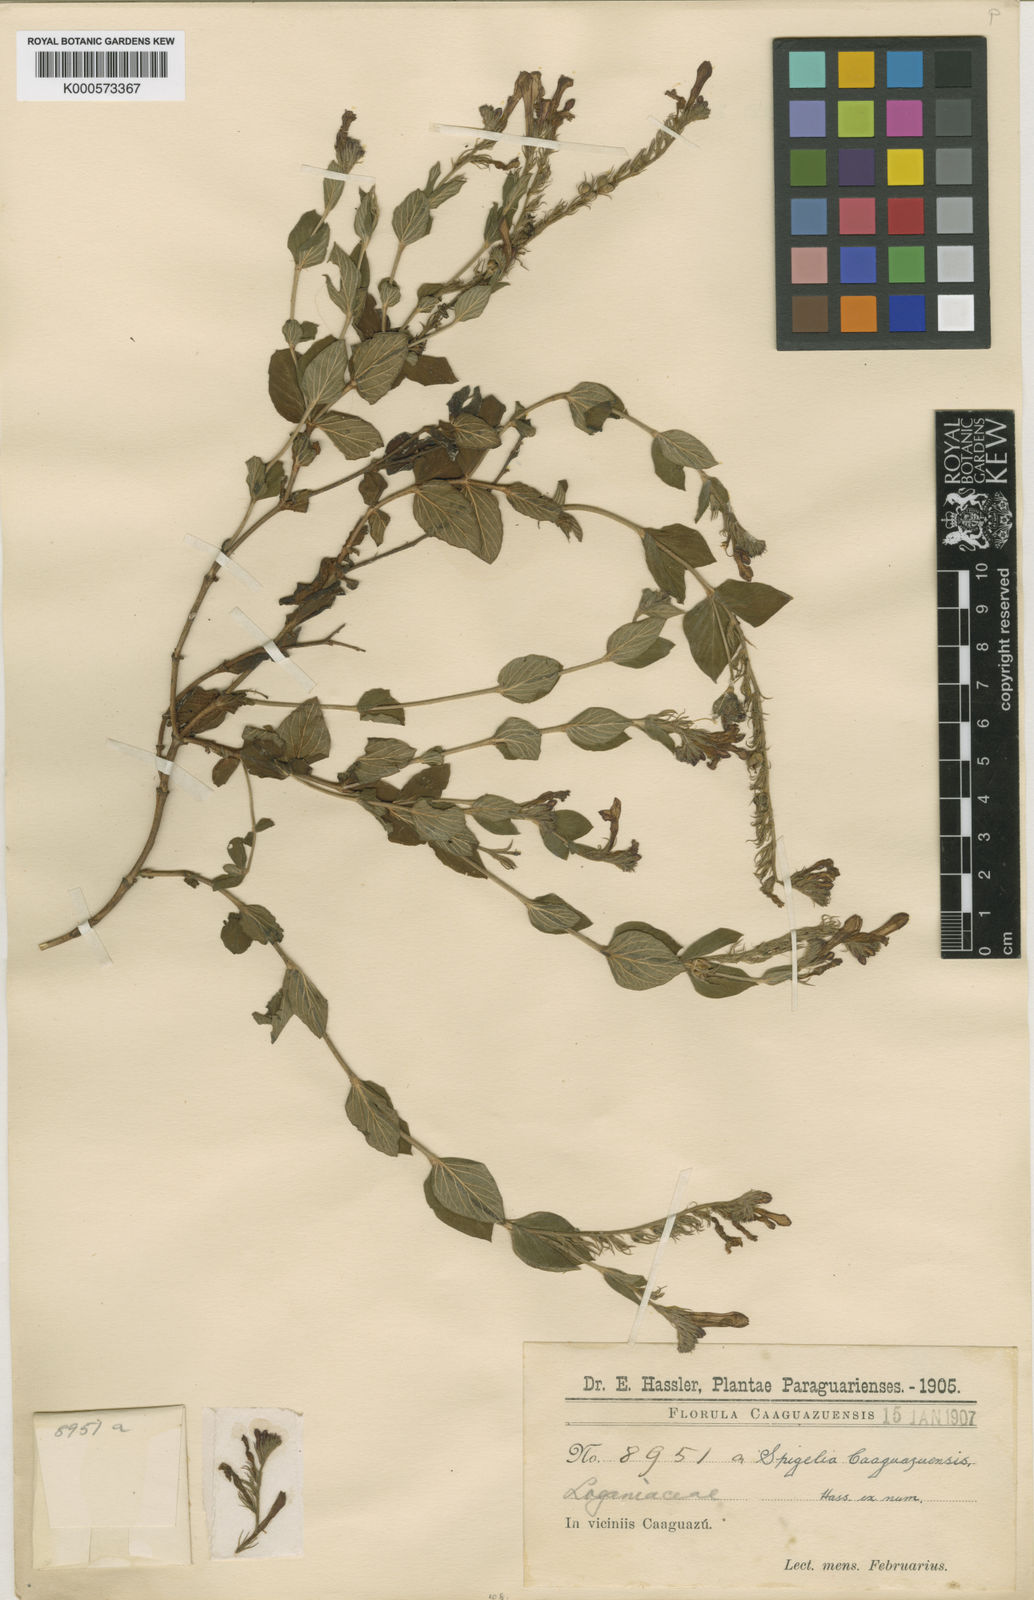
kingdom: Plantae
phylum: Tracheophyta
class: Magnoliopsida
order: Gentianales
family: Loganiaceae
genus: Spigelia
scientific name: Spigelia caaguazuensis
